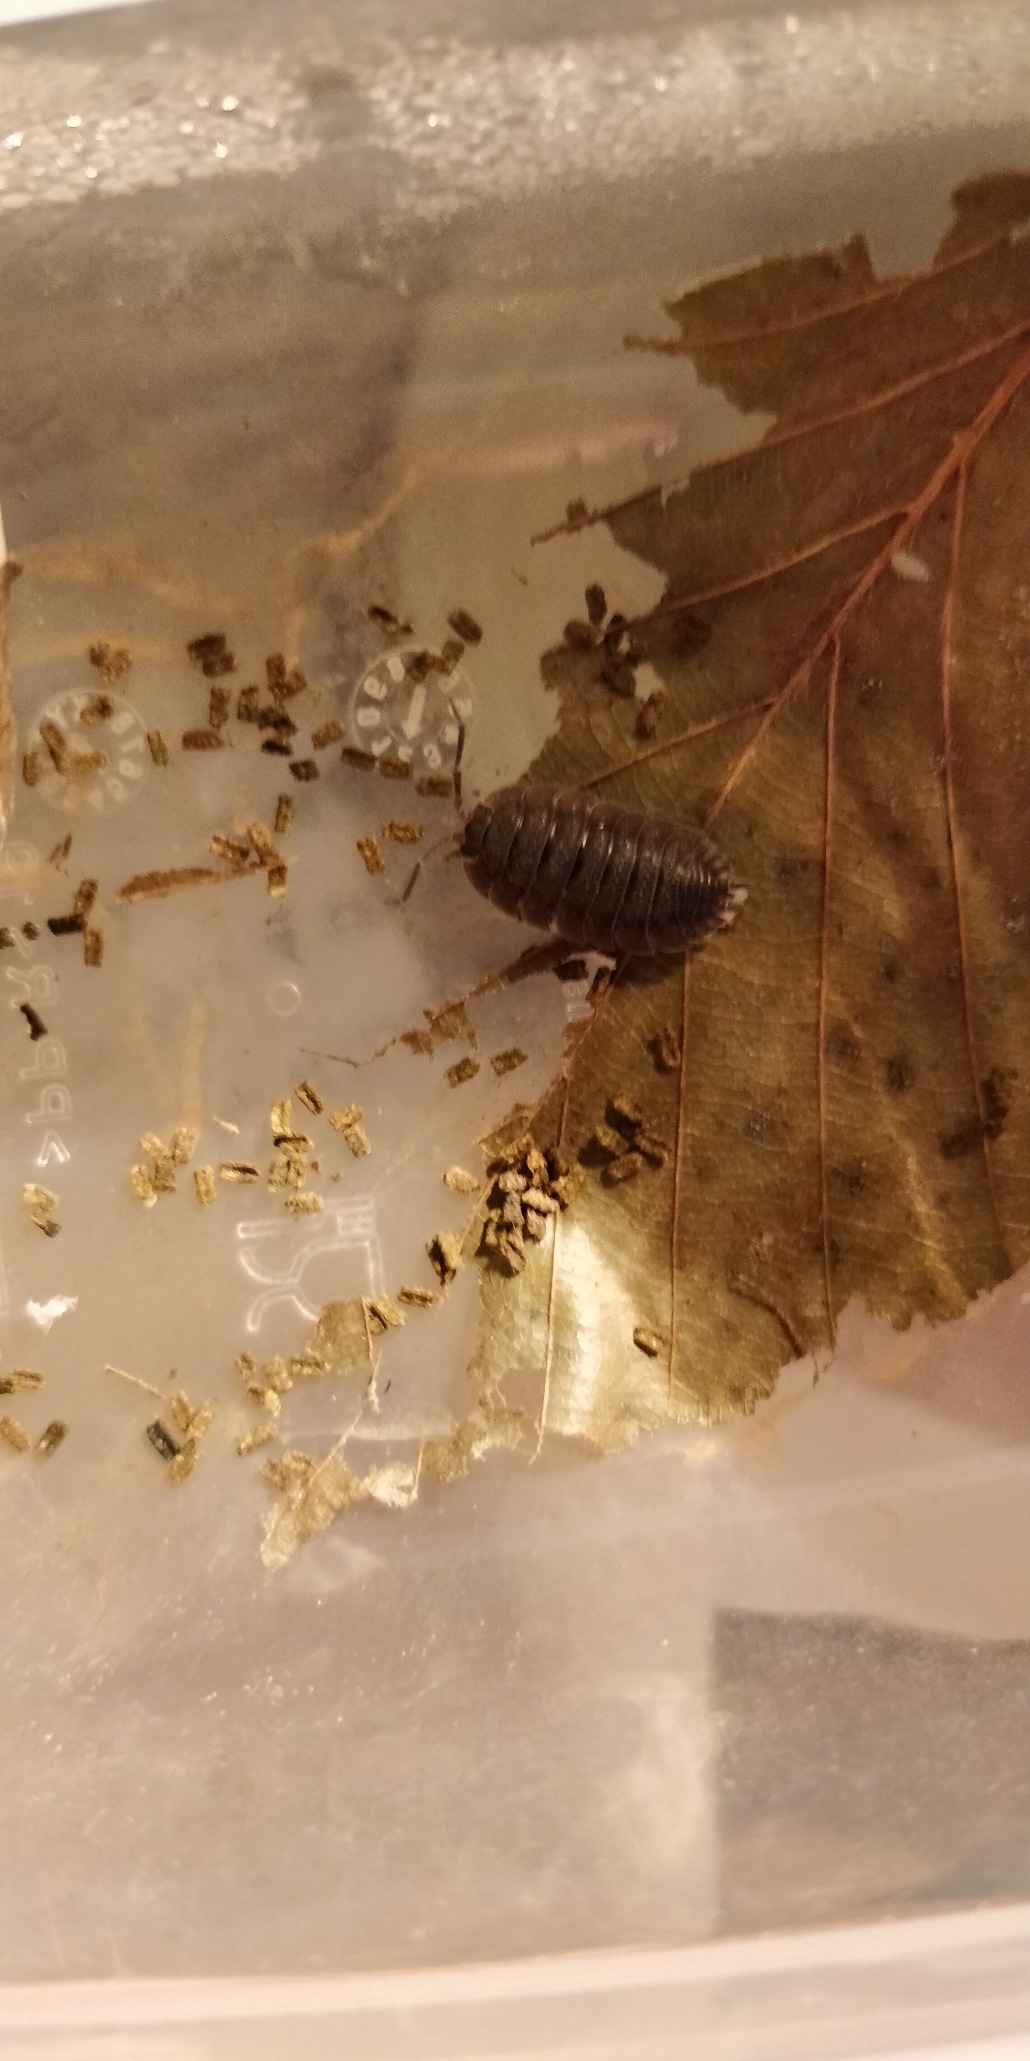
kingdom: Animalia
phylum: Arthropoda
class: Malacostraca
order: Isopoda
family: Porcellionidae
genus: Porcellio
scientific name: Porcellio scaber
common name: Grå bænkebider
